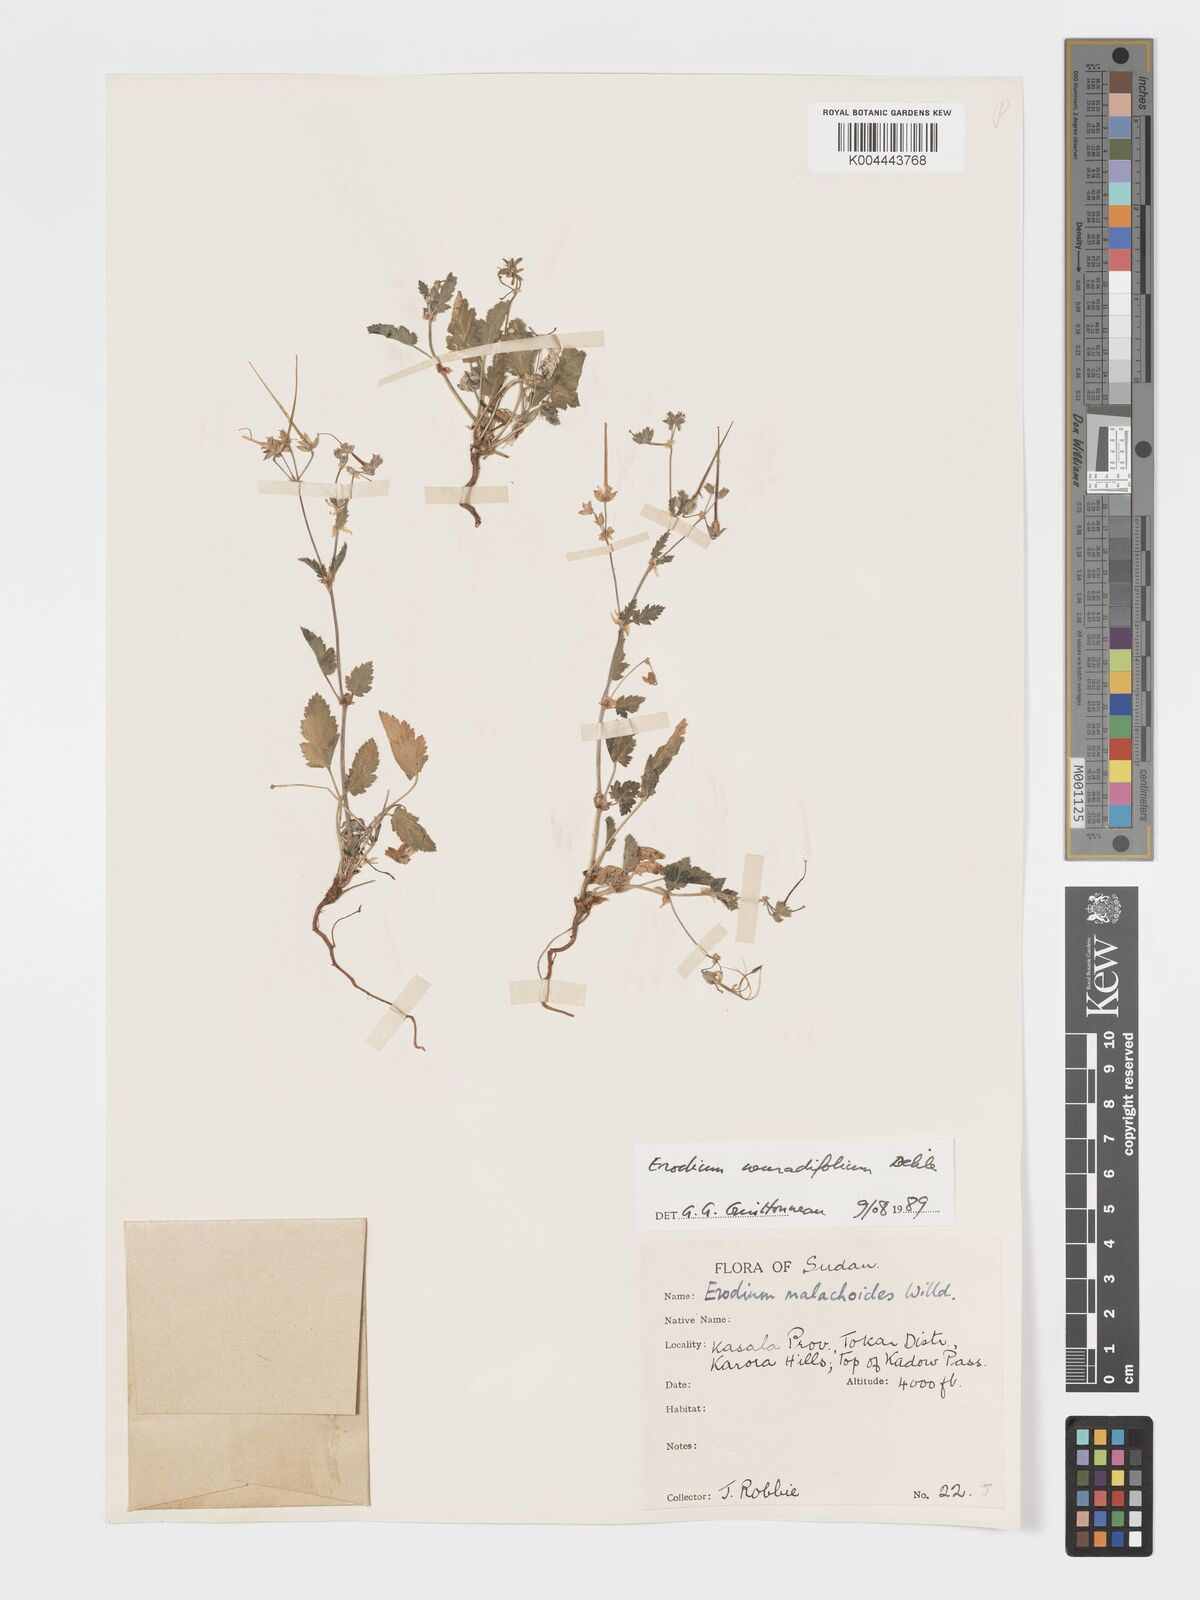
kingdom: Plantae
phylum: Tracheophyta
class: Magnoliopsida
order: Geraniales
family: Geraniaceae
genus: Erodium
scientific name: Erodium neuradifolium
